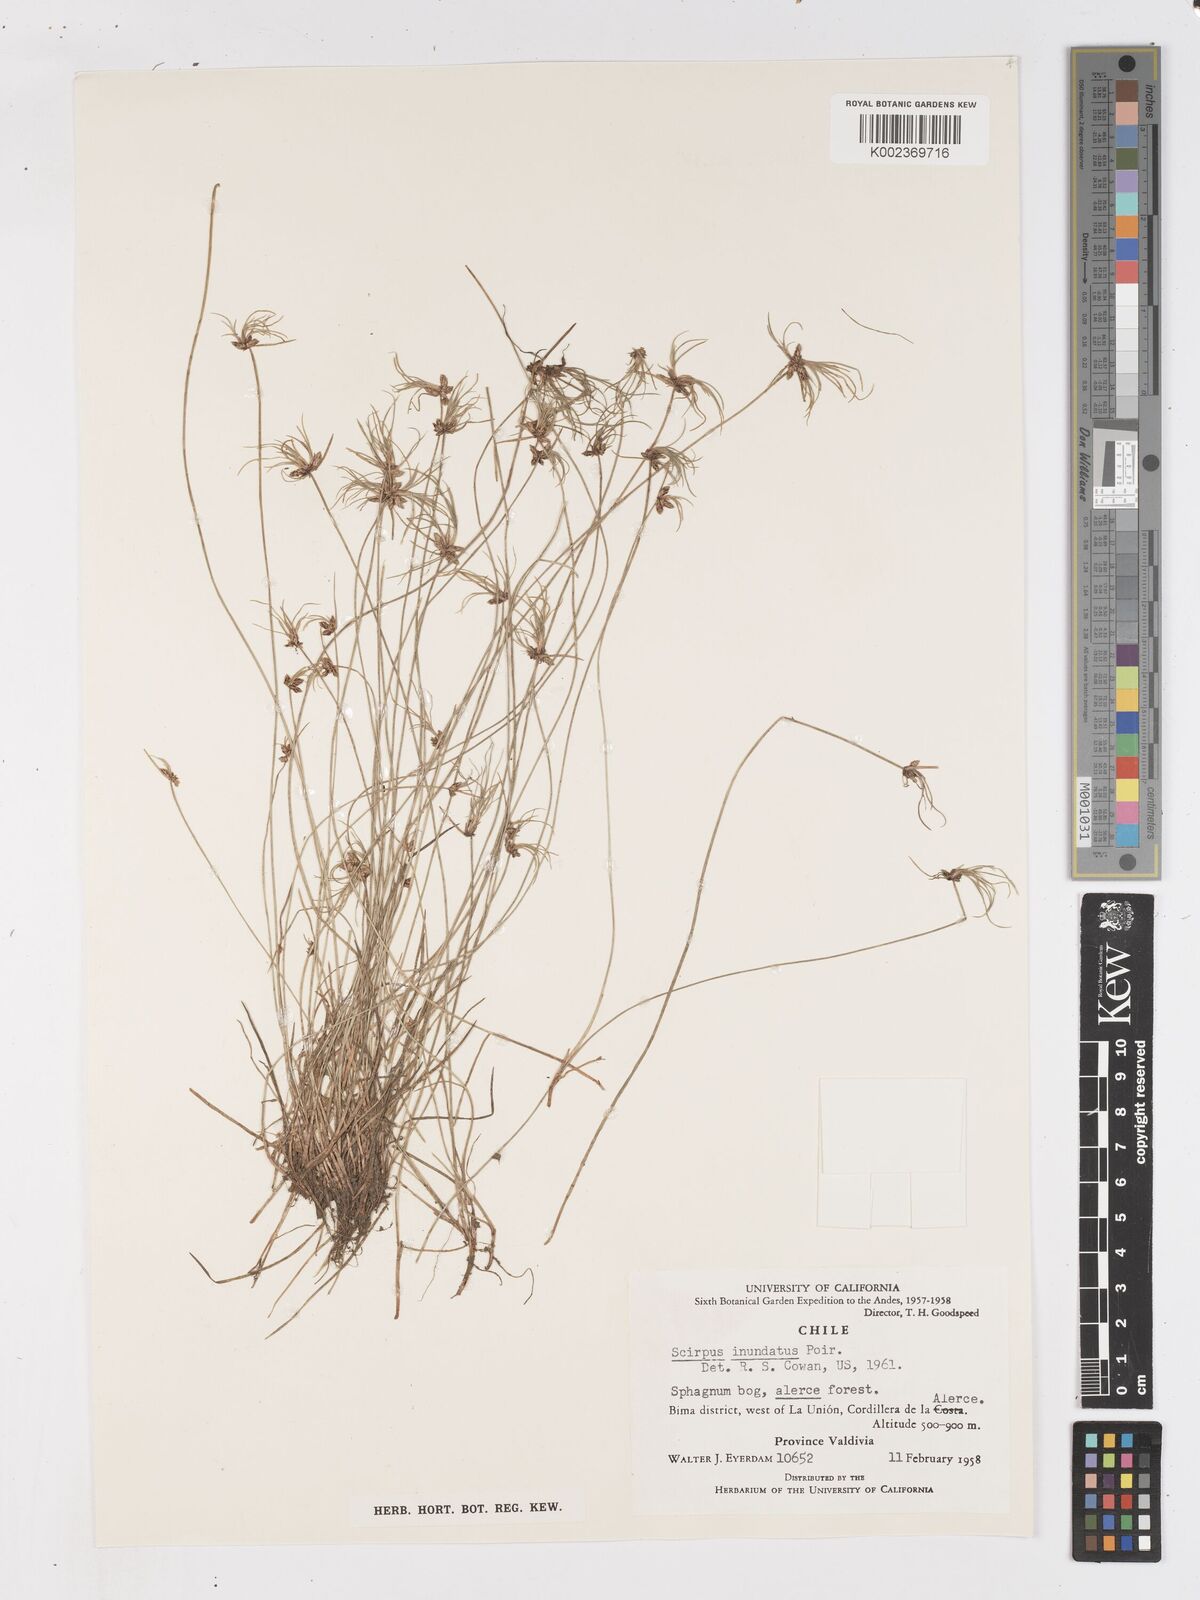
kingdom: Plantae
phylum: Tracheophyta
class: Liliopsida
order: Poales
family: Cyperaceae
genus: Isolepis
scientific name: Isolepis inundata
